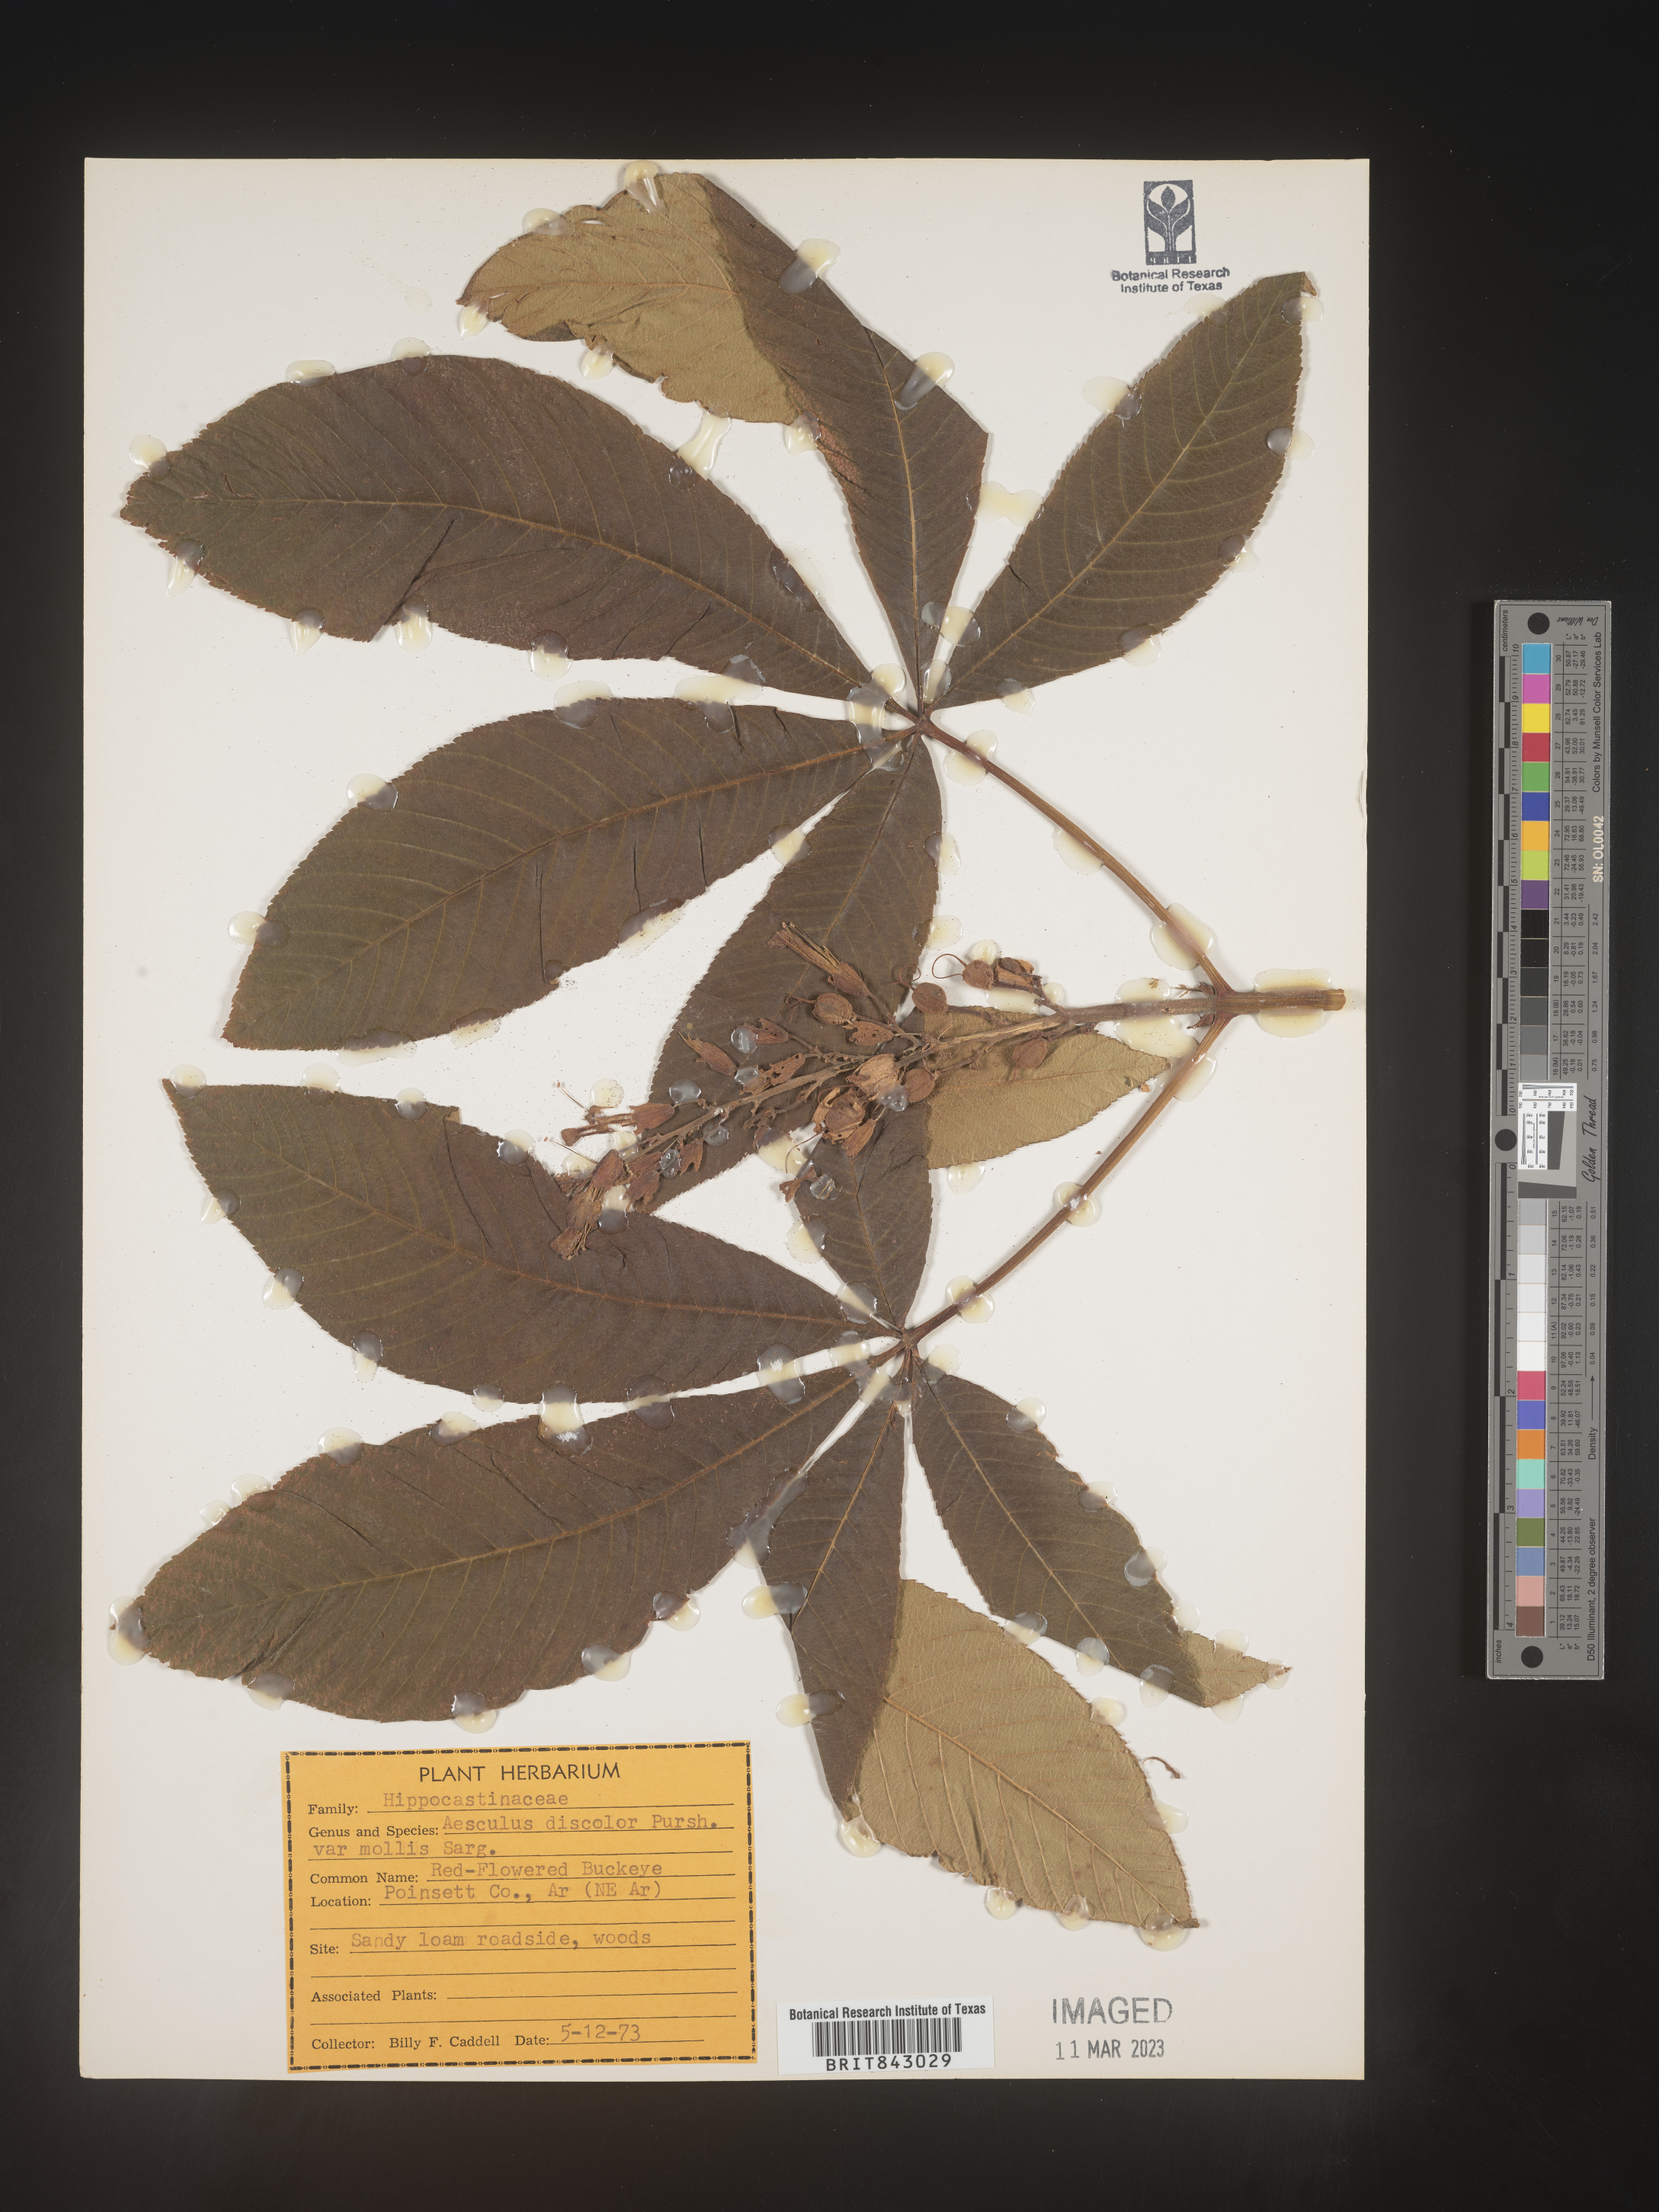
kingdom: Plantae
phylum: Tracheophyta
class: Magnoliopsida
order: Sapindales
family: Sapindaceae
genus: Aesculus
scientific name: Aesculus pavia
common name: Red buckeye
